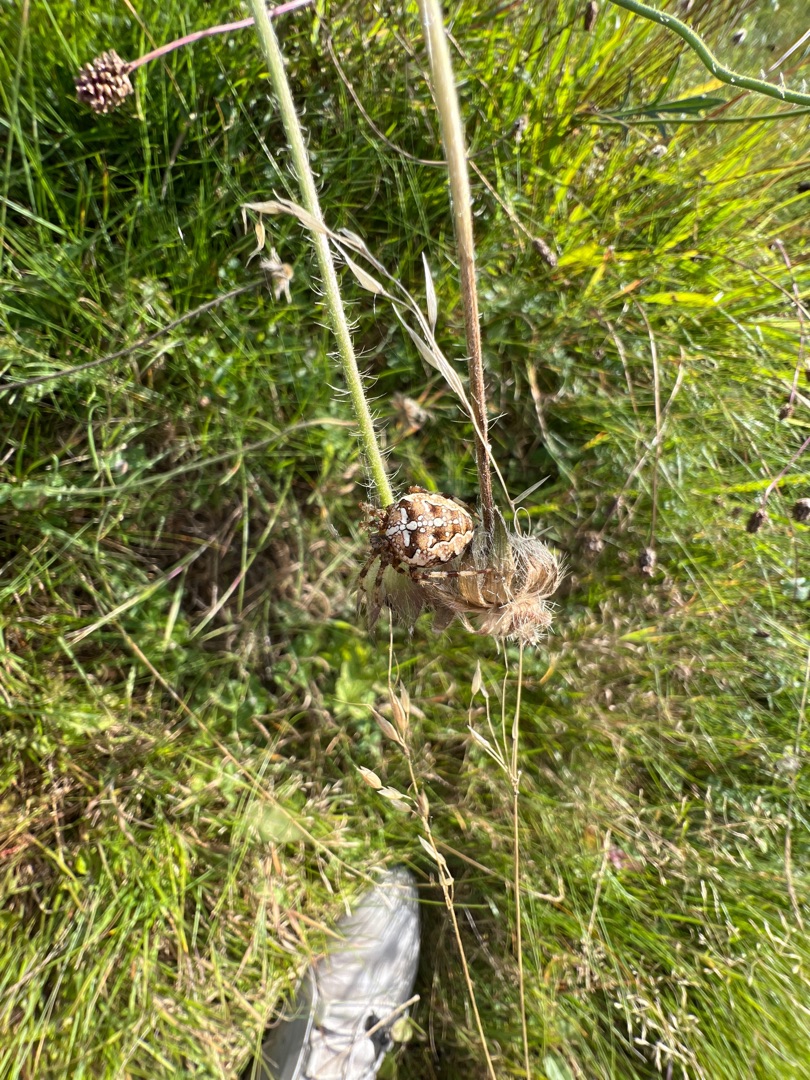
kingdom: Animalia
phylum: Arthropoda
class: Arachnida
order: Araneae
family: Araneidae
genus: Araneus
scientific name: Araneus diadematus
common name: Korsedderkop
